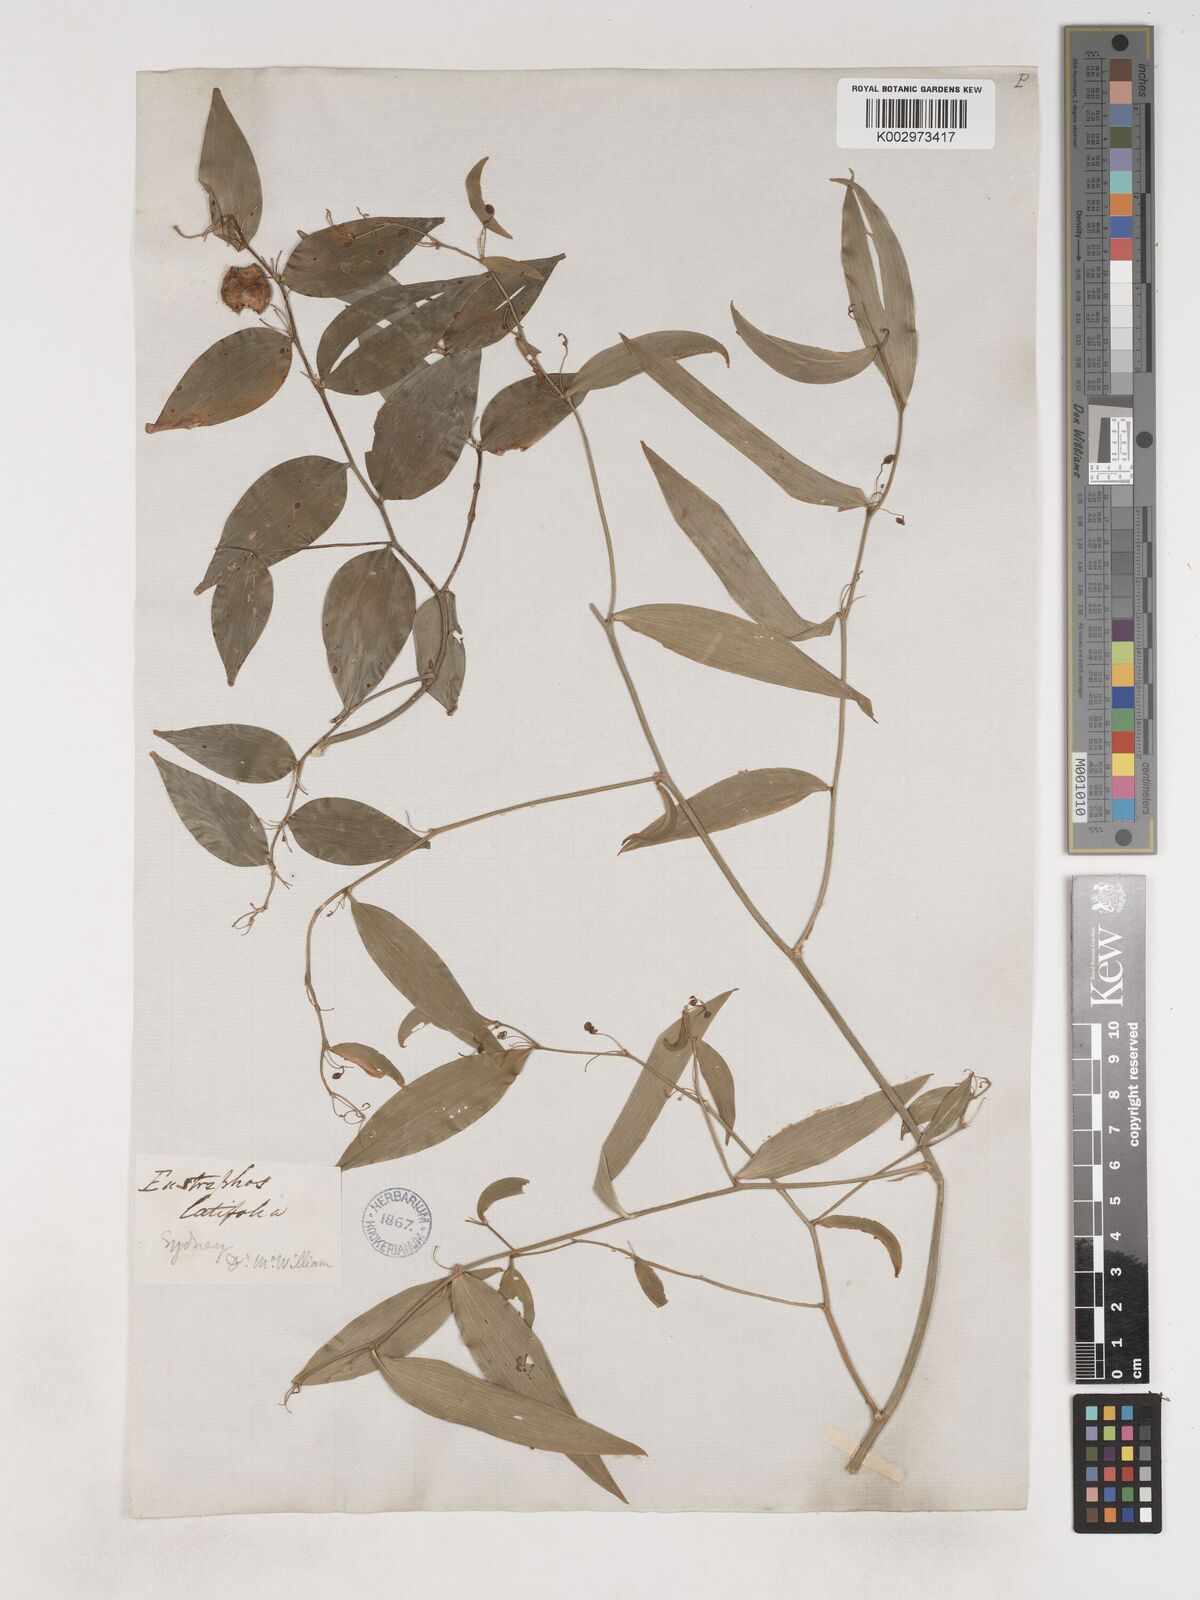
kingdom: Plantae
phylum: Tracheophyta
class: Liliopsida
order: Asparagales
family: Asparagaceae
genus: Eustrephus
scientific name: Eustrephus latifolius
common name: Orangevine
